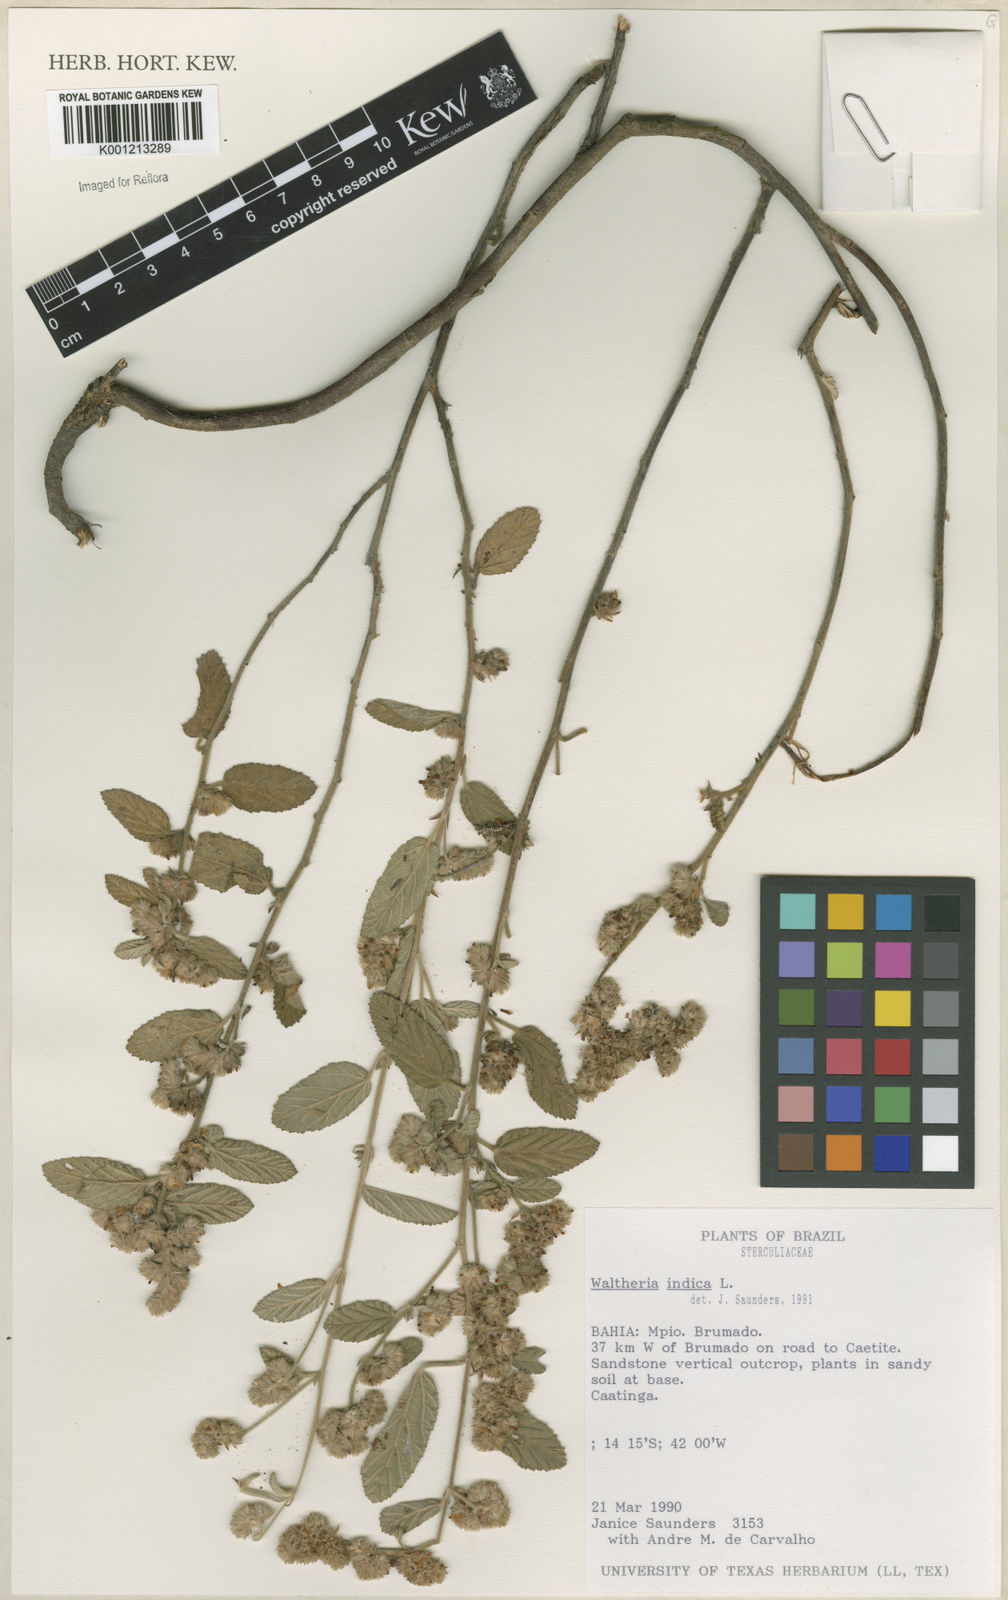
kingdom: Plantae
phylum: Tracheophyta
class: Magnoliopsida
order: Malvales
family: Malvaceae
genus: Waltheria
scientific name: Waltheria indica
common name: Leather-coat
